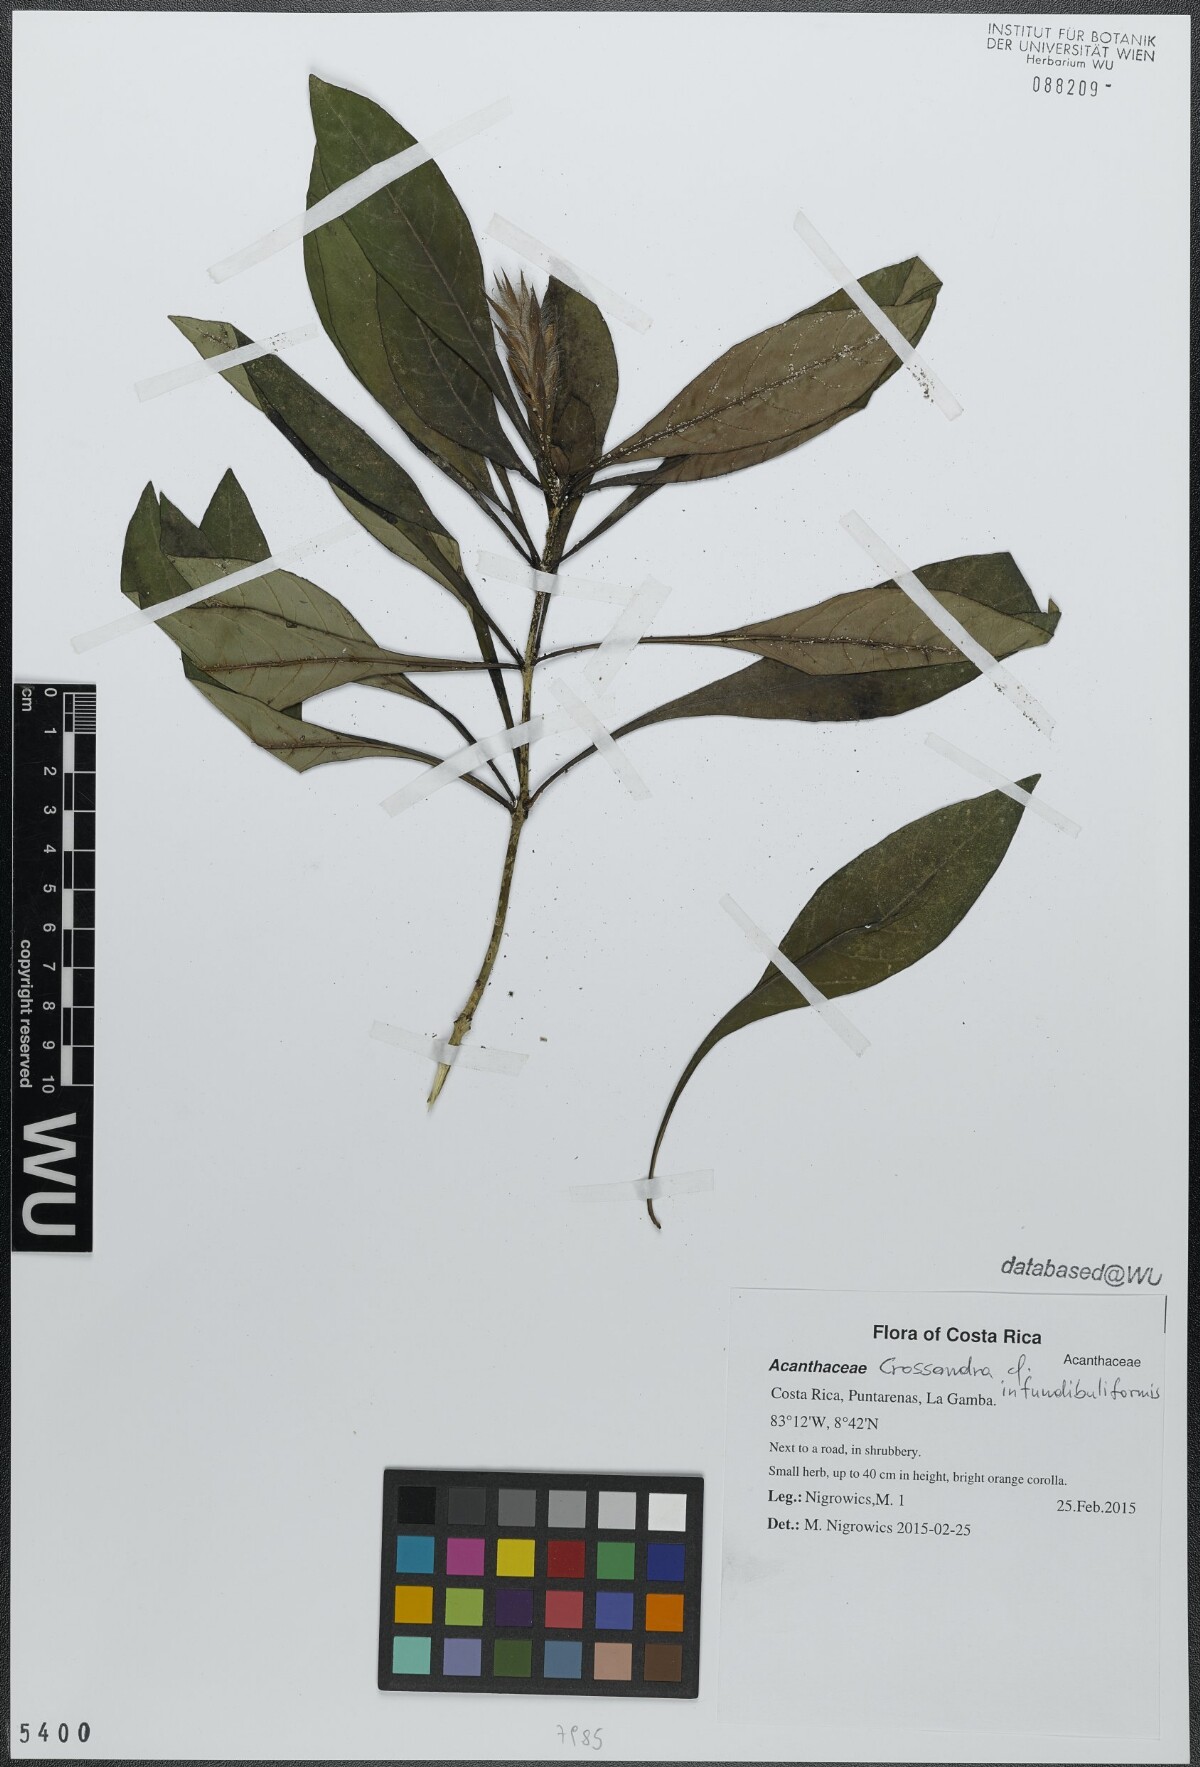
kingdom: Plantae
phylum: Tracheophyta
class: Magnoliopsida
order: Lamiales
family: Acanthaceae
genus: Crossandra
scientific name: Crossandra infundibuliformis
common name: Firecracker-flower
